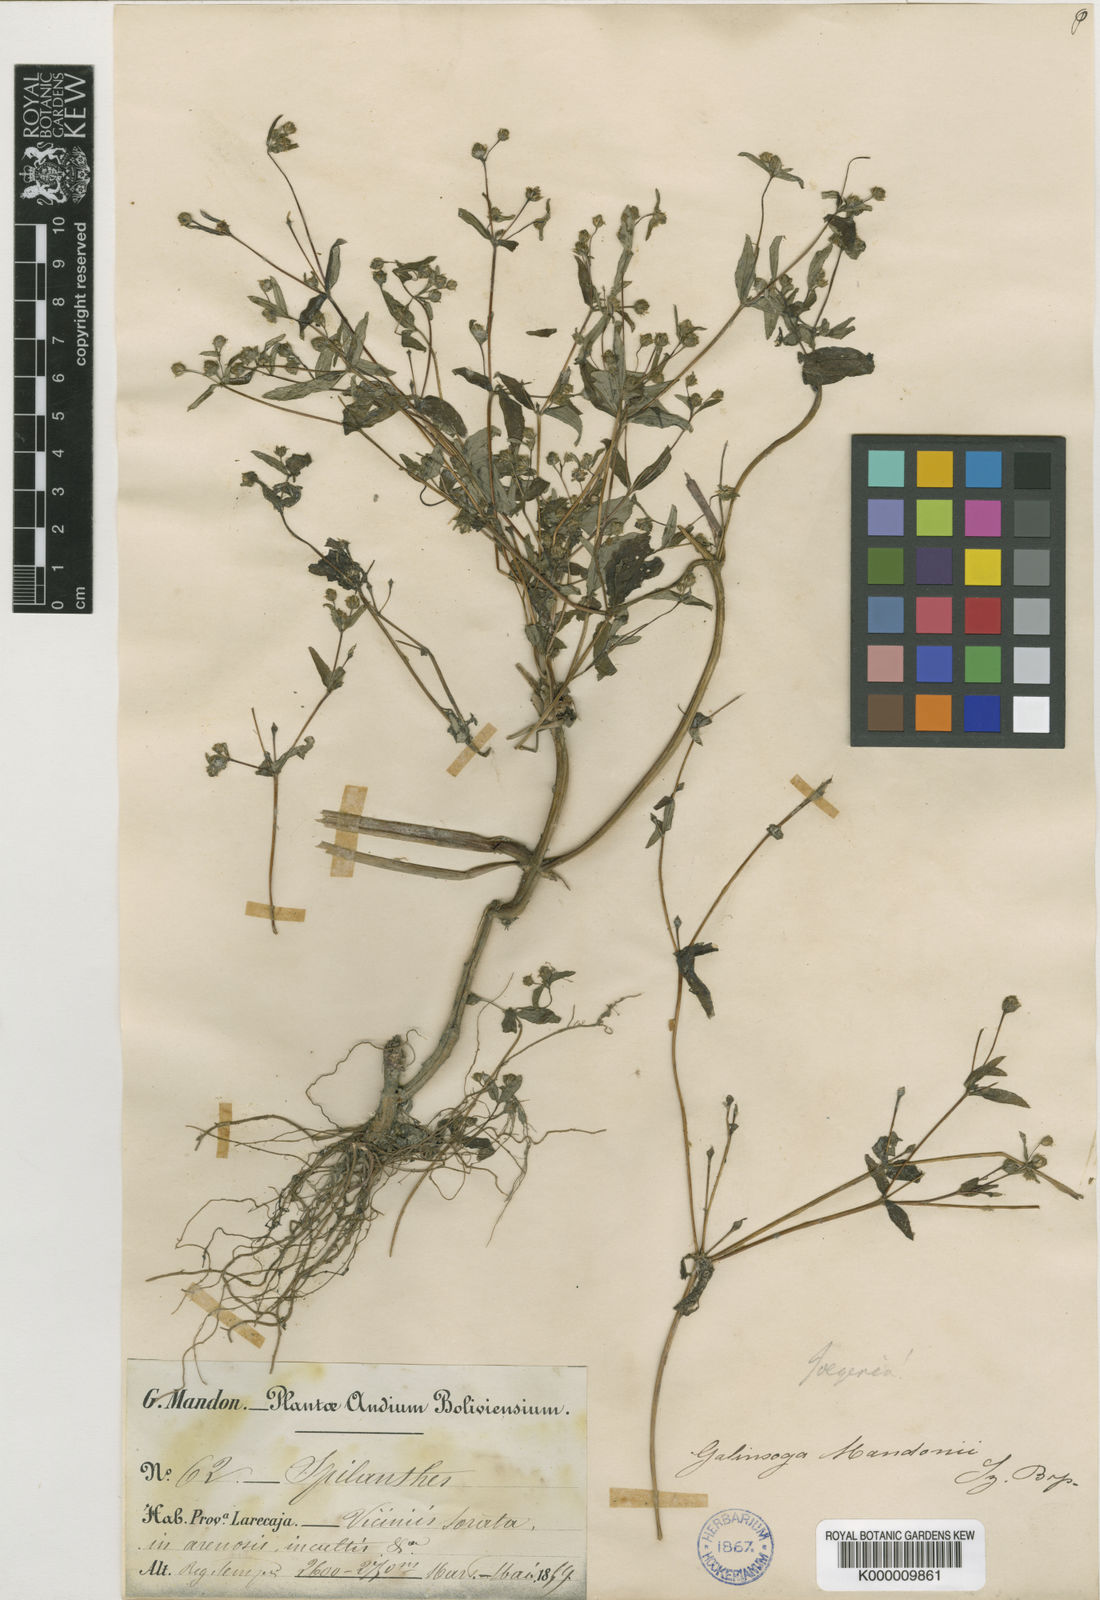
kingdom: Plantae
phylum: Tracheophyta
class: Magnoliopsida
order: Asterales
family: Asteraceae
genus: Jaegeria
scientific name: Jaegeria hirta
